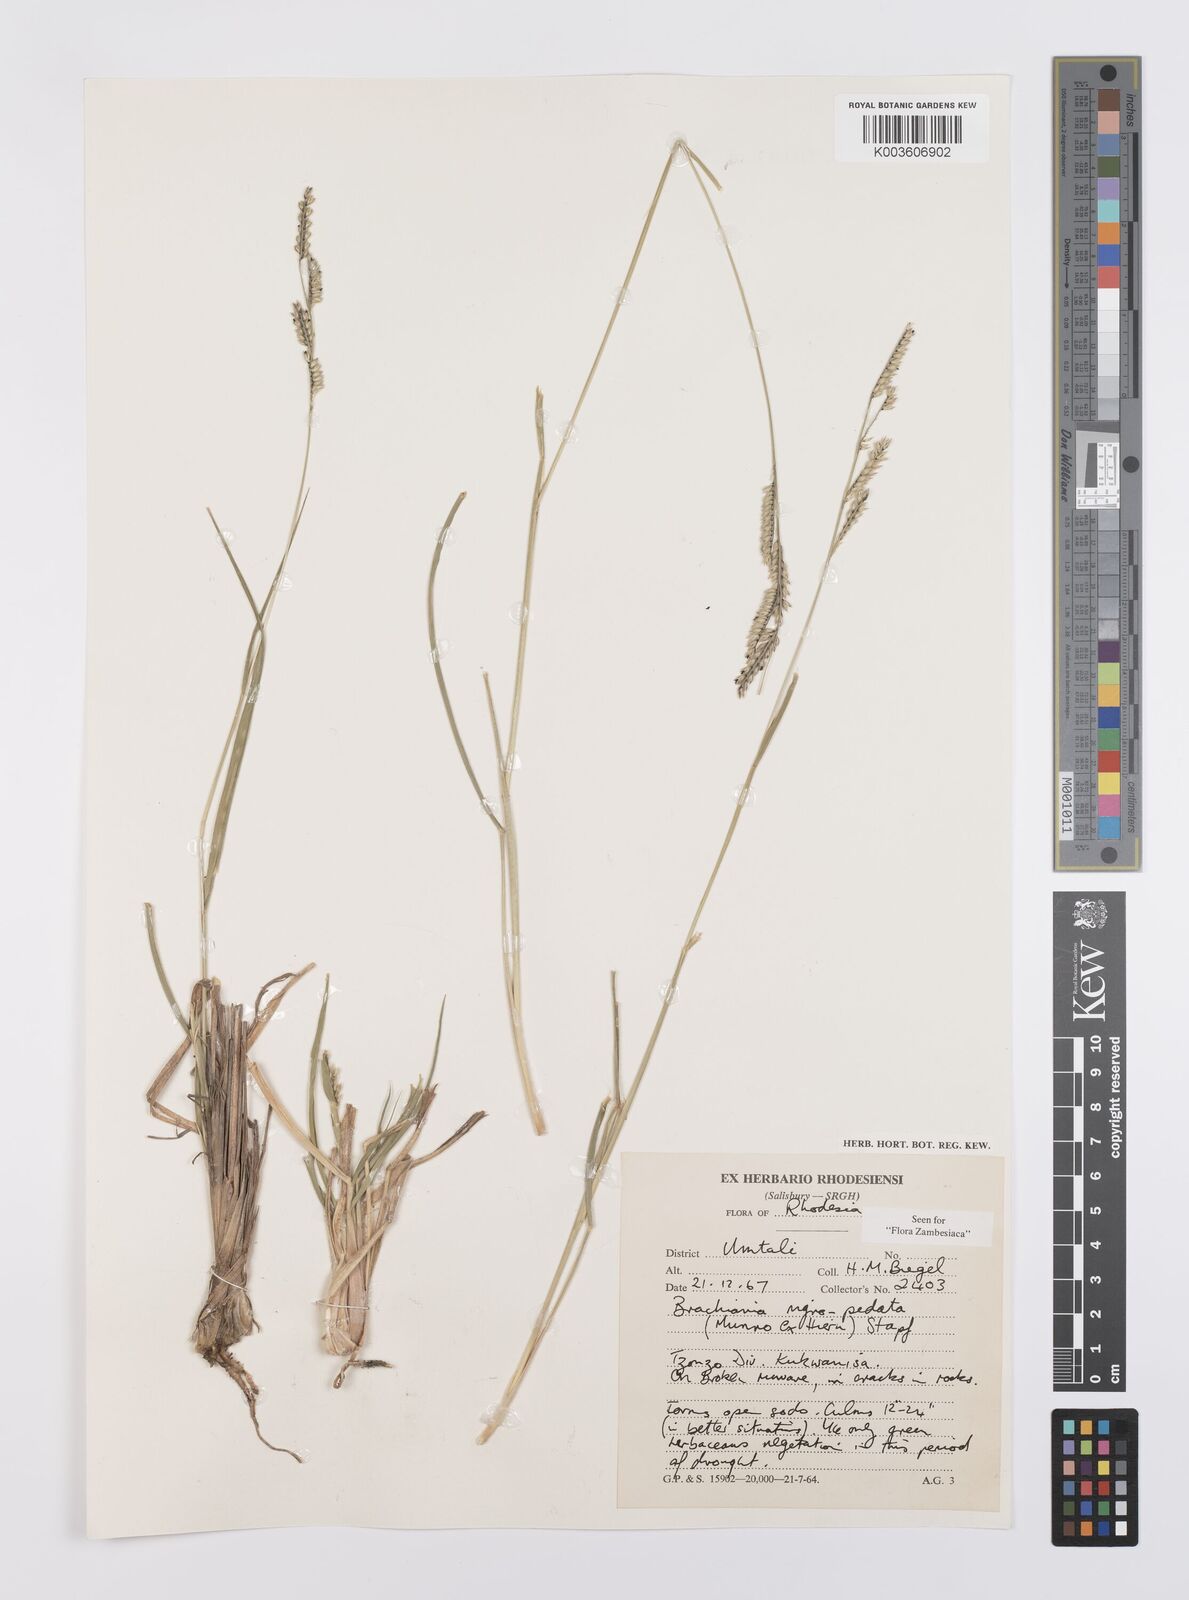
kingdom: Plantae
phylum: Tracheophyta
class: Liliopsida
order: Poales
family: Poaceae
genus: Urochloa
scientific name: Urochloa nigropedata
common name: Spotted signal grass
